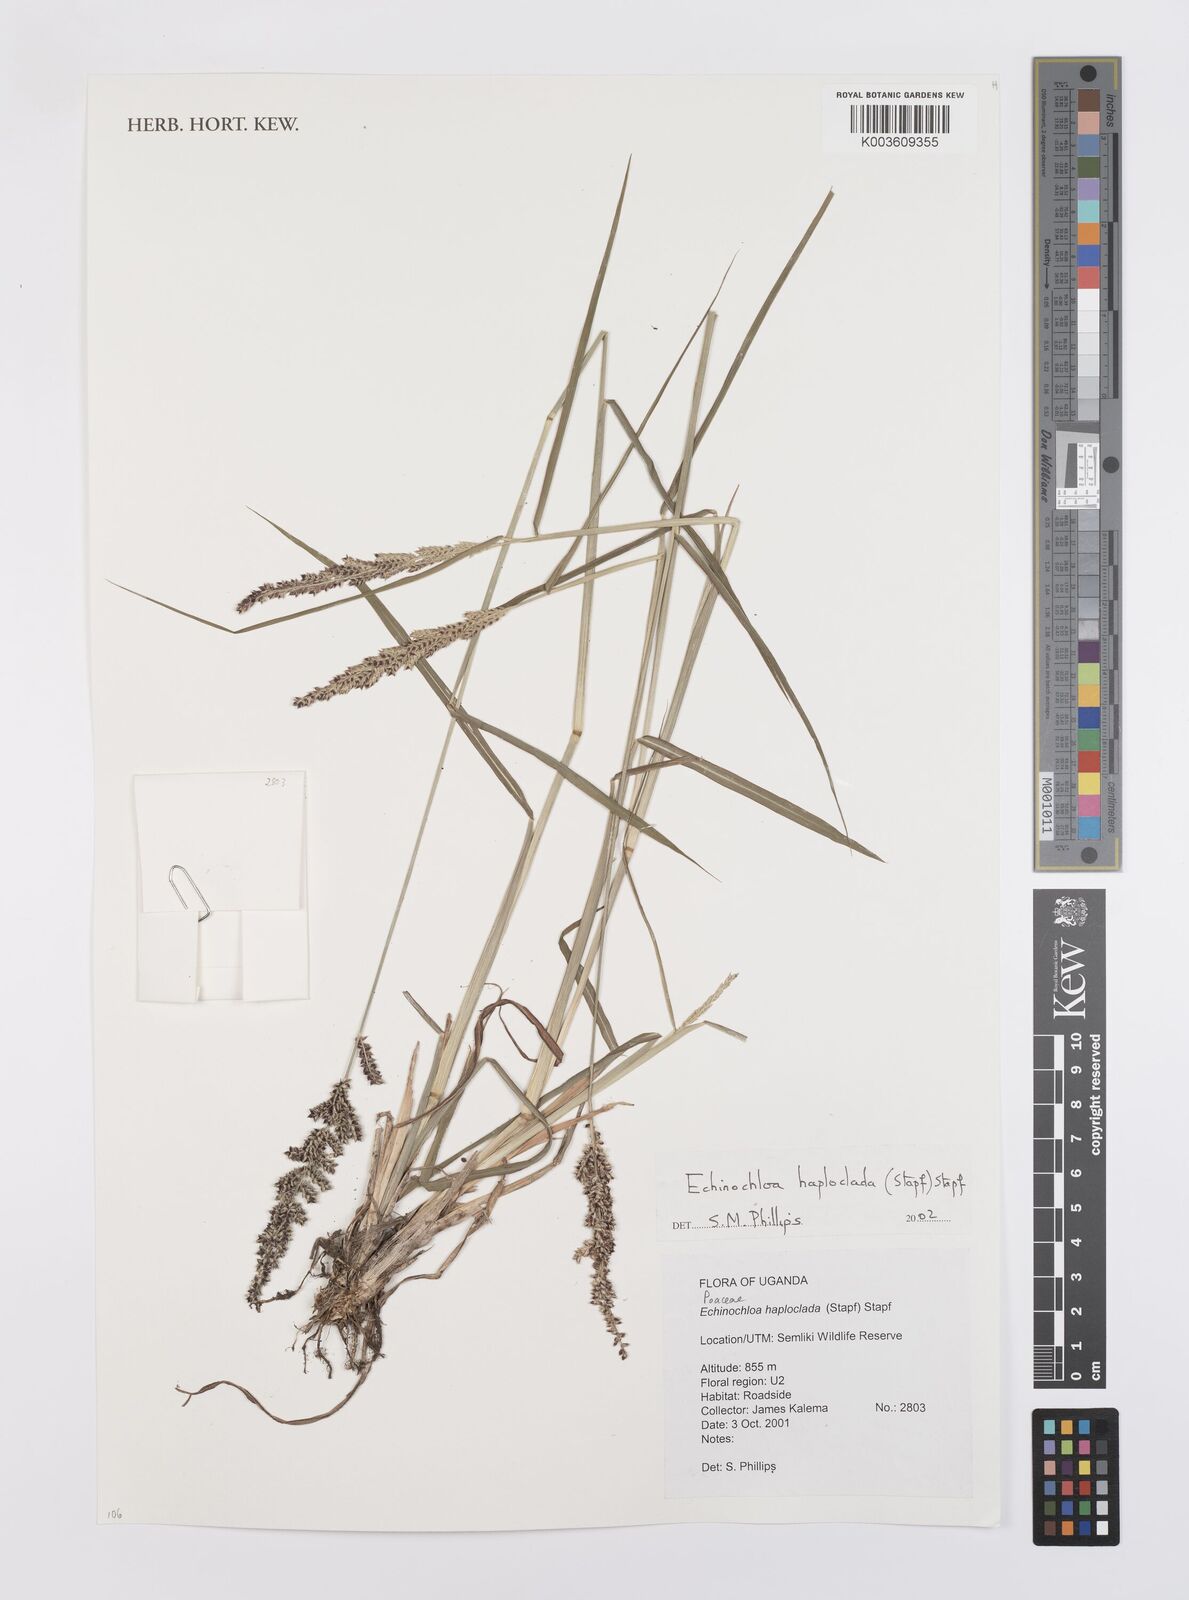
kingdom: Plantae
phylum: Tracheophyta
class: Liliopsida
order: Poales
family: Poaceae
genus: Echinochloa
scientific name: Echinochloa haploclada
